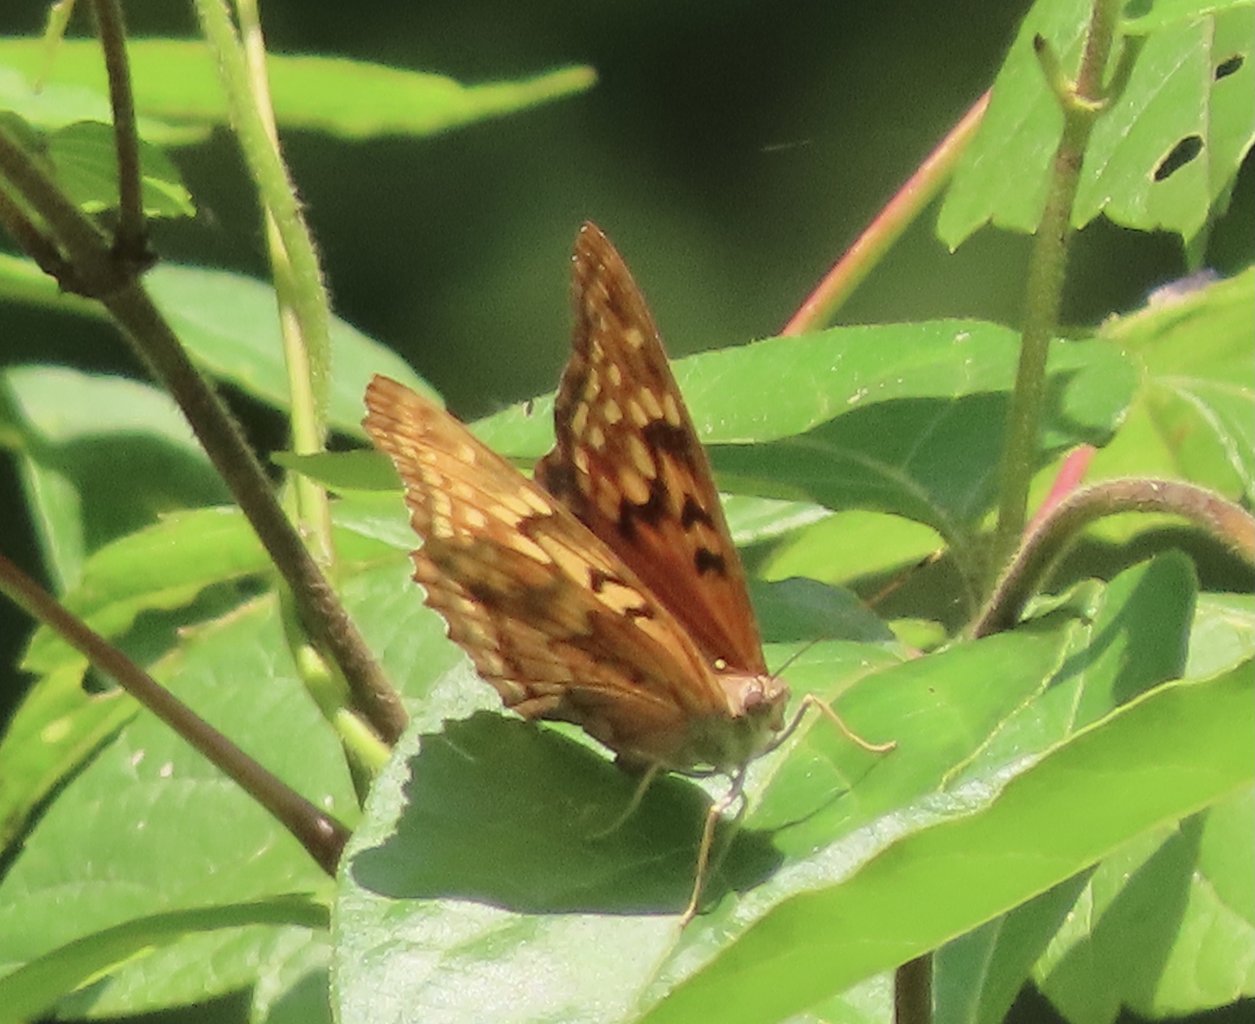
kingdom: Animalia
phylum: Arthropoda
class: Insecta
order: Lepidoptera
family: Nymphalidae
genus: Asterocampa
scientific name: Asterocampa clyton
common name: Tawny Emperor
